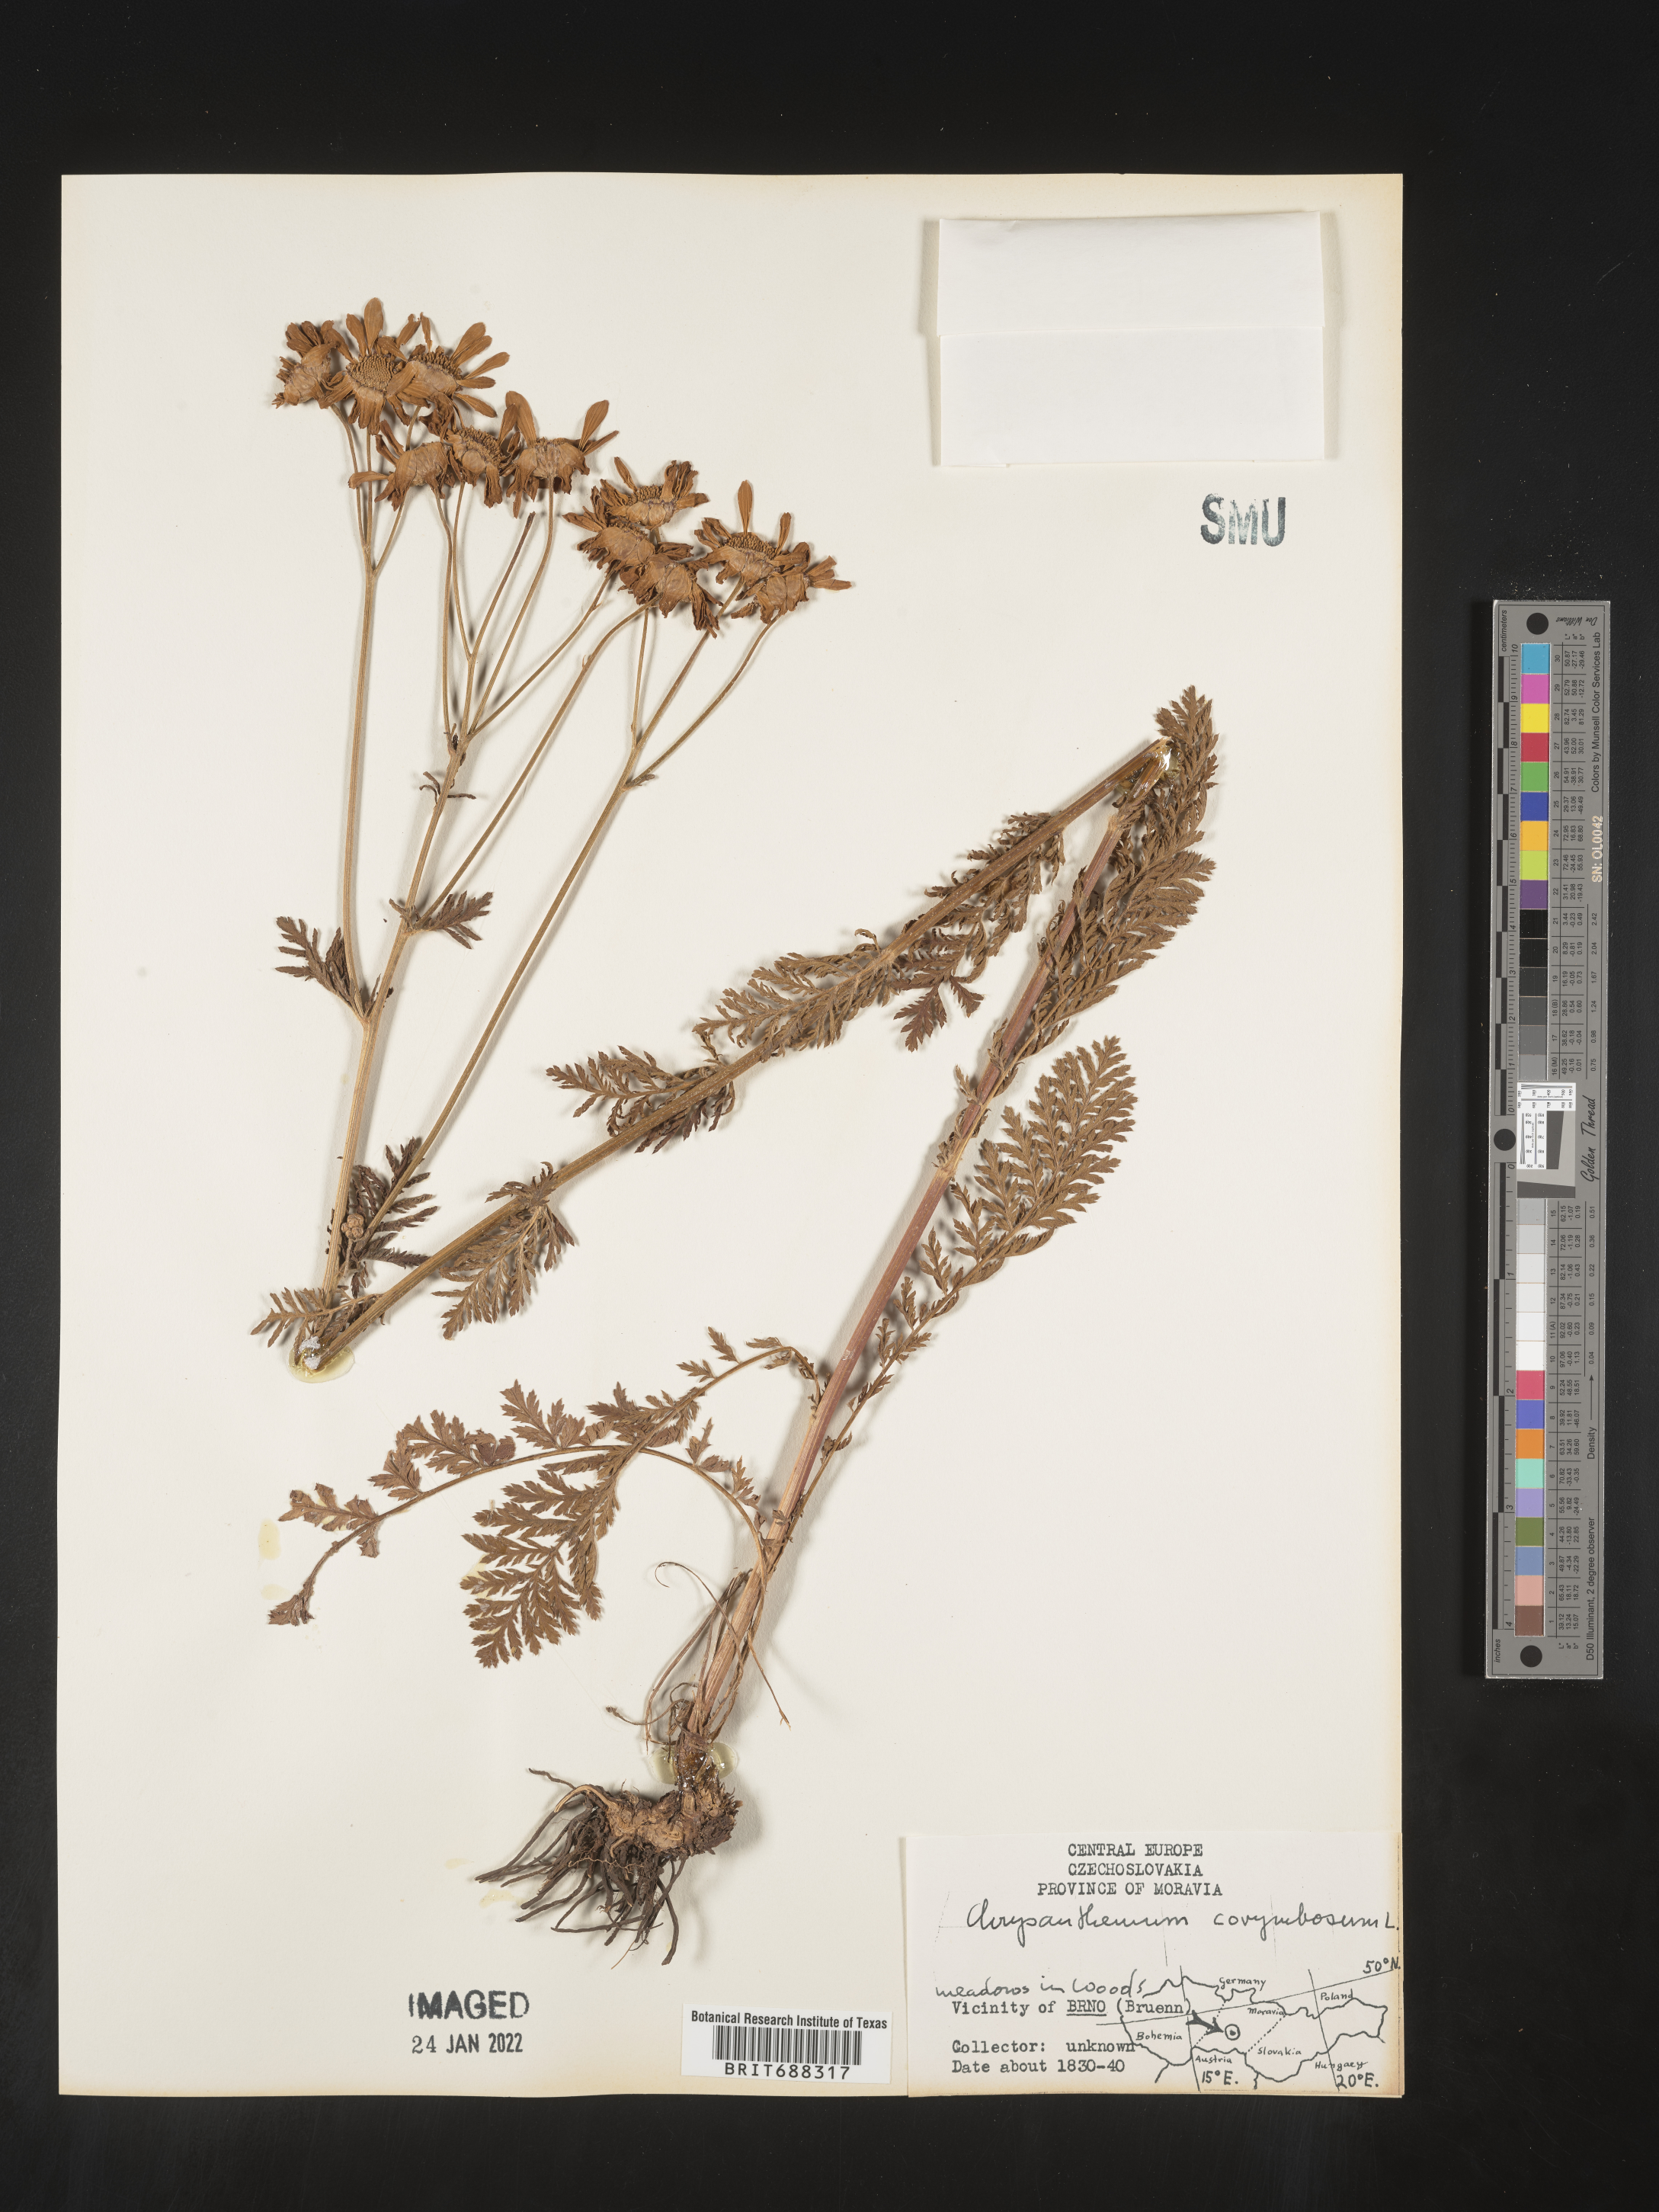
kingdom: Plantae
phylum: Tracheophyta
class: Magnoliopsida
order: Asterales
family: Asteraceae
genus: Chrysanthemum
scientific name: Chrysanthemum
